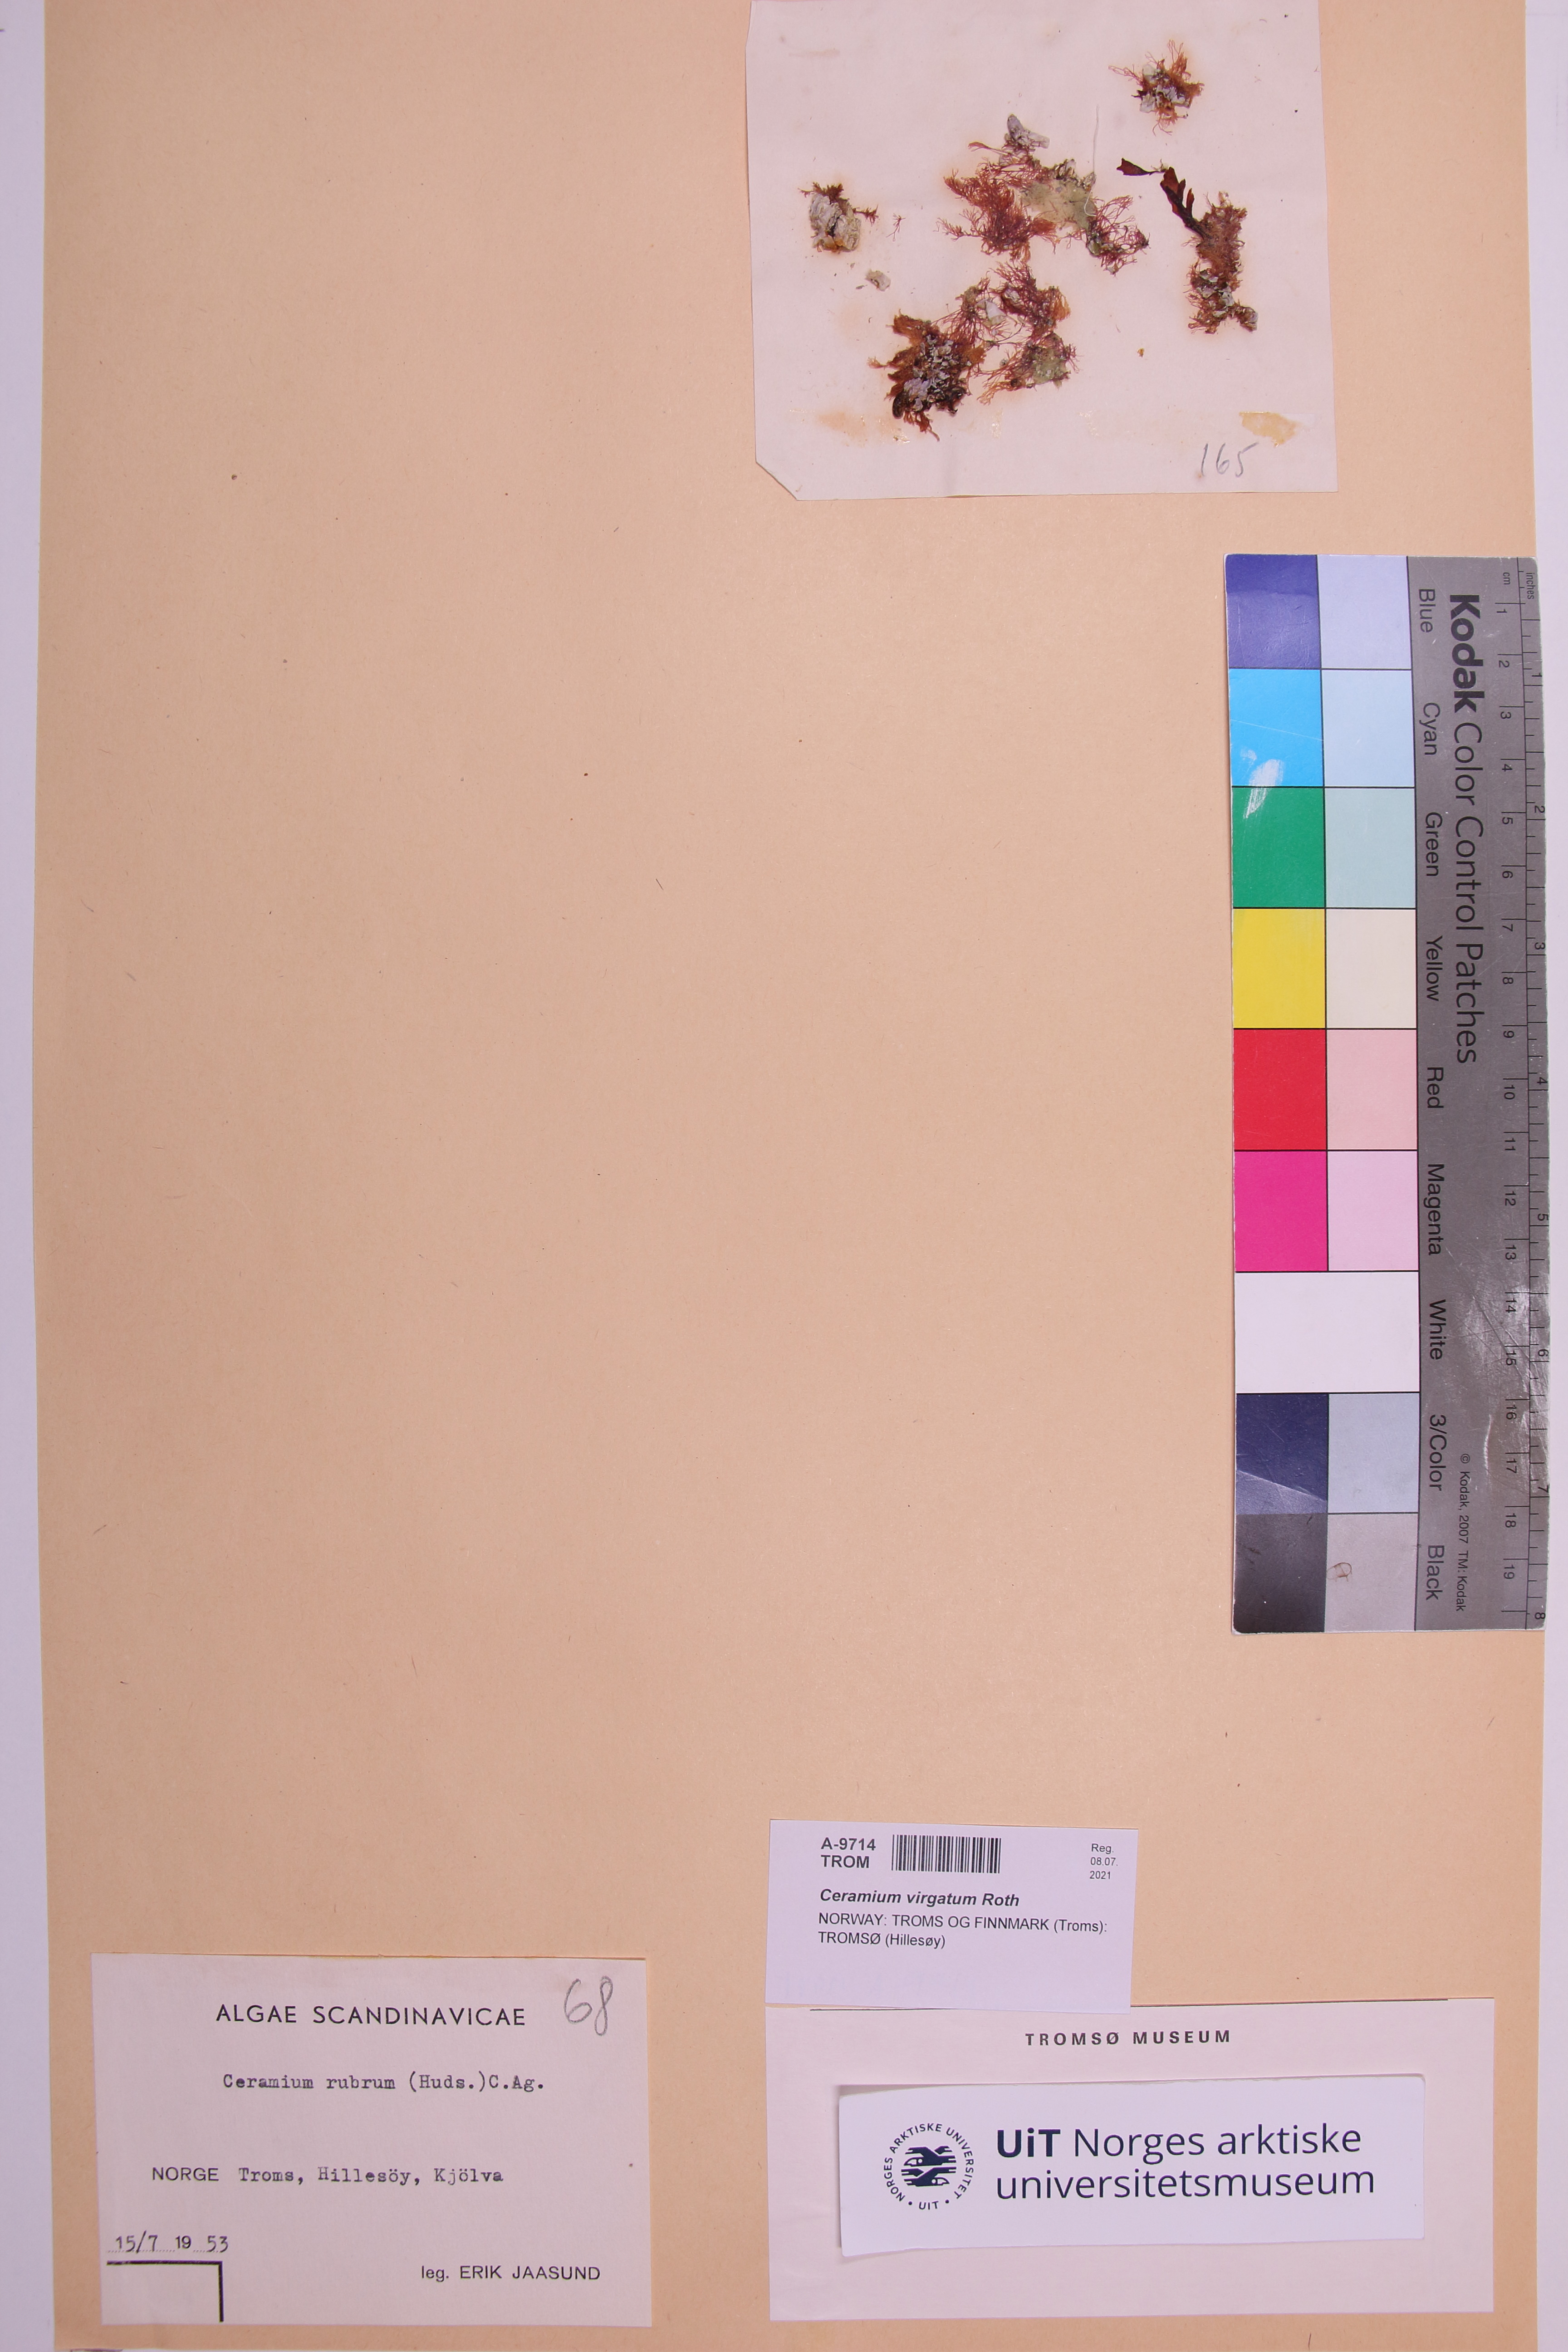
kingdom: Plantae
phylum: Rhodophyta
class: Florideophyceae
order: Ceramiales
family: Ceramiaceae
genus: Ceramium
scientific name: Ceramium virgatum
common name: Red hornweed
